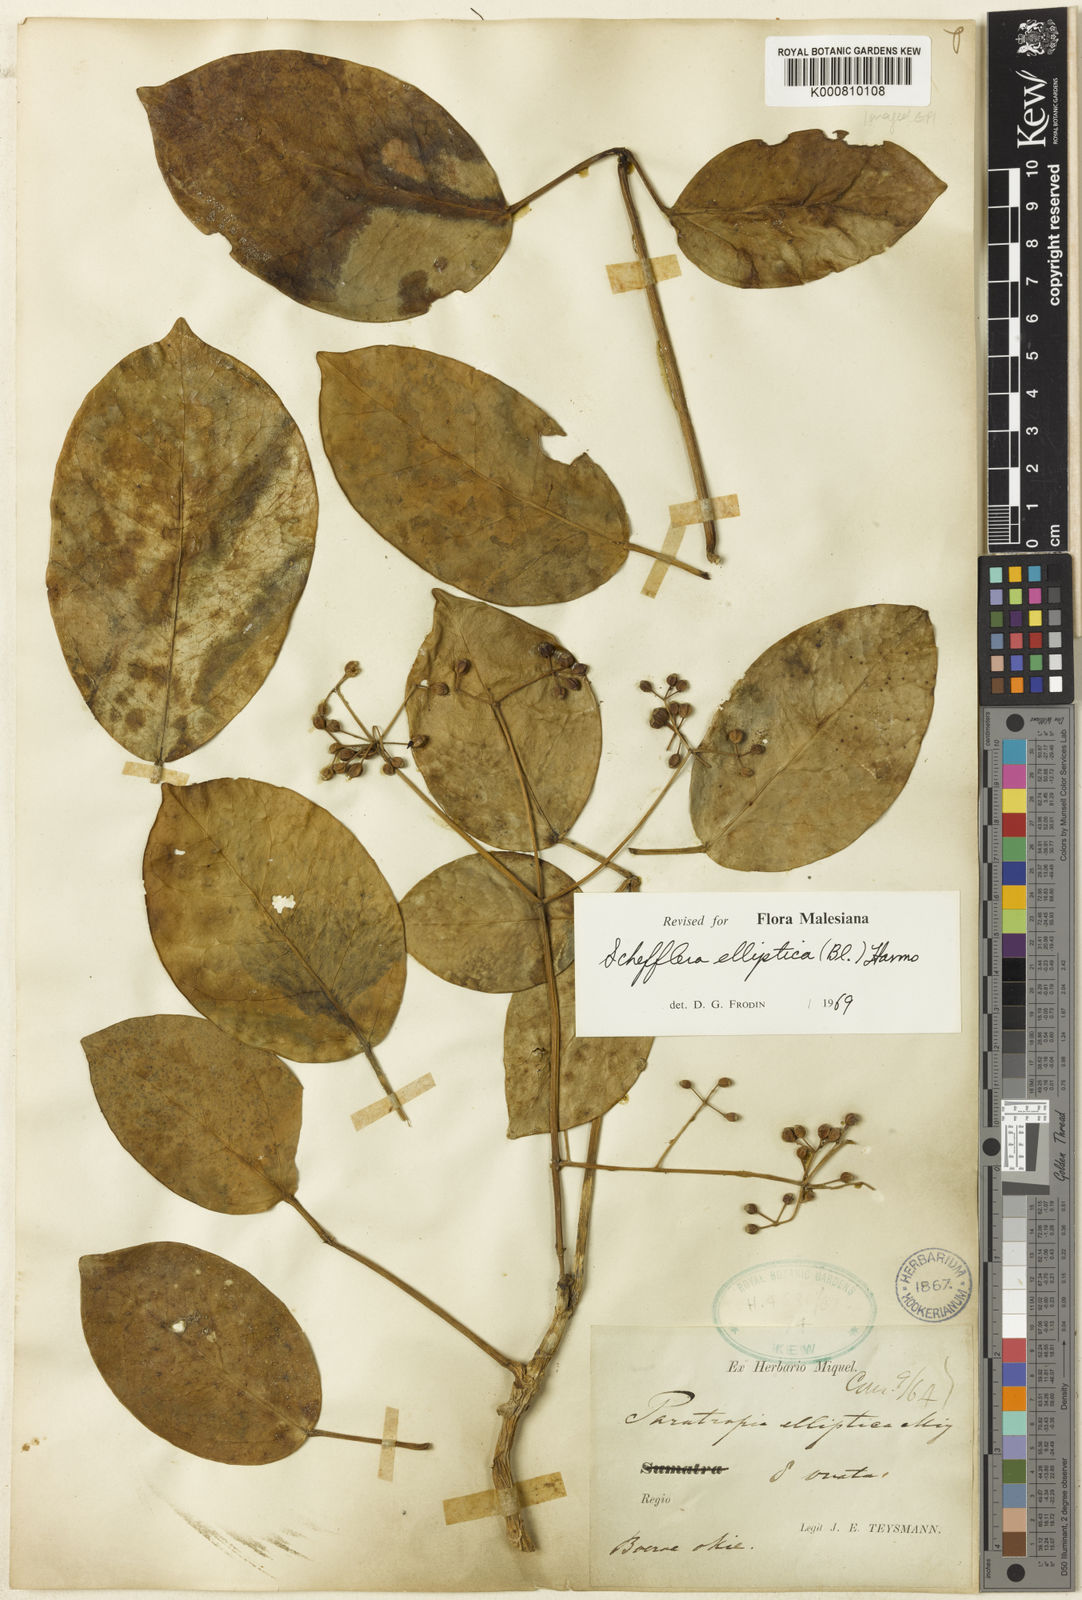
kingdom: Plantae
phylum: Tracheophyta
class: Magnoliopsida
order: Apiales
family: Araliaceae
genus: Heptapleurum
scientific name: Heptapleurum ellipticum
